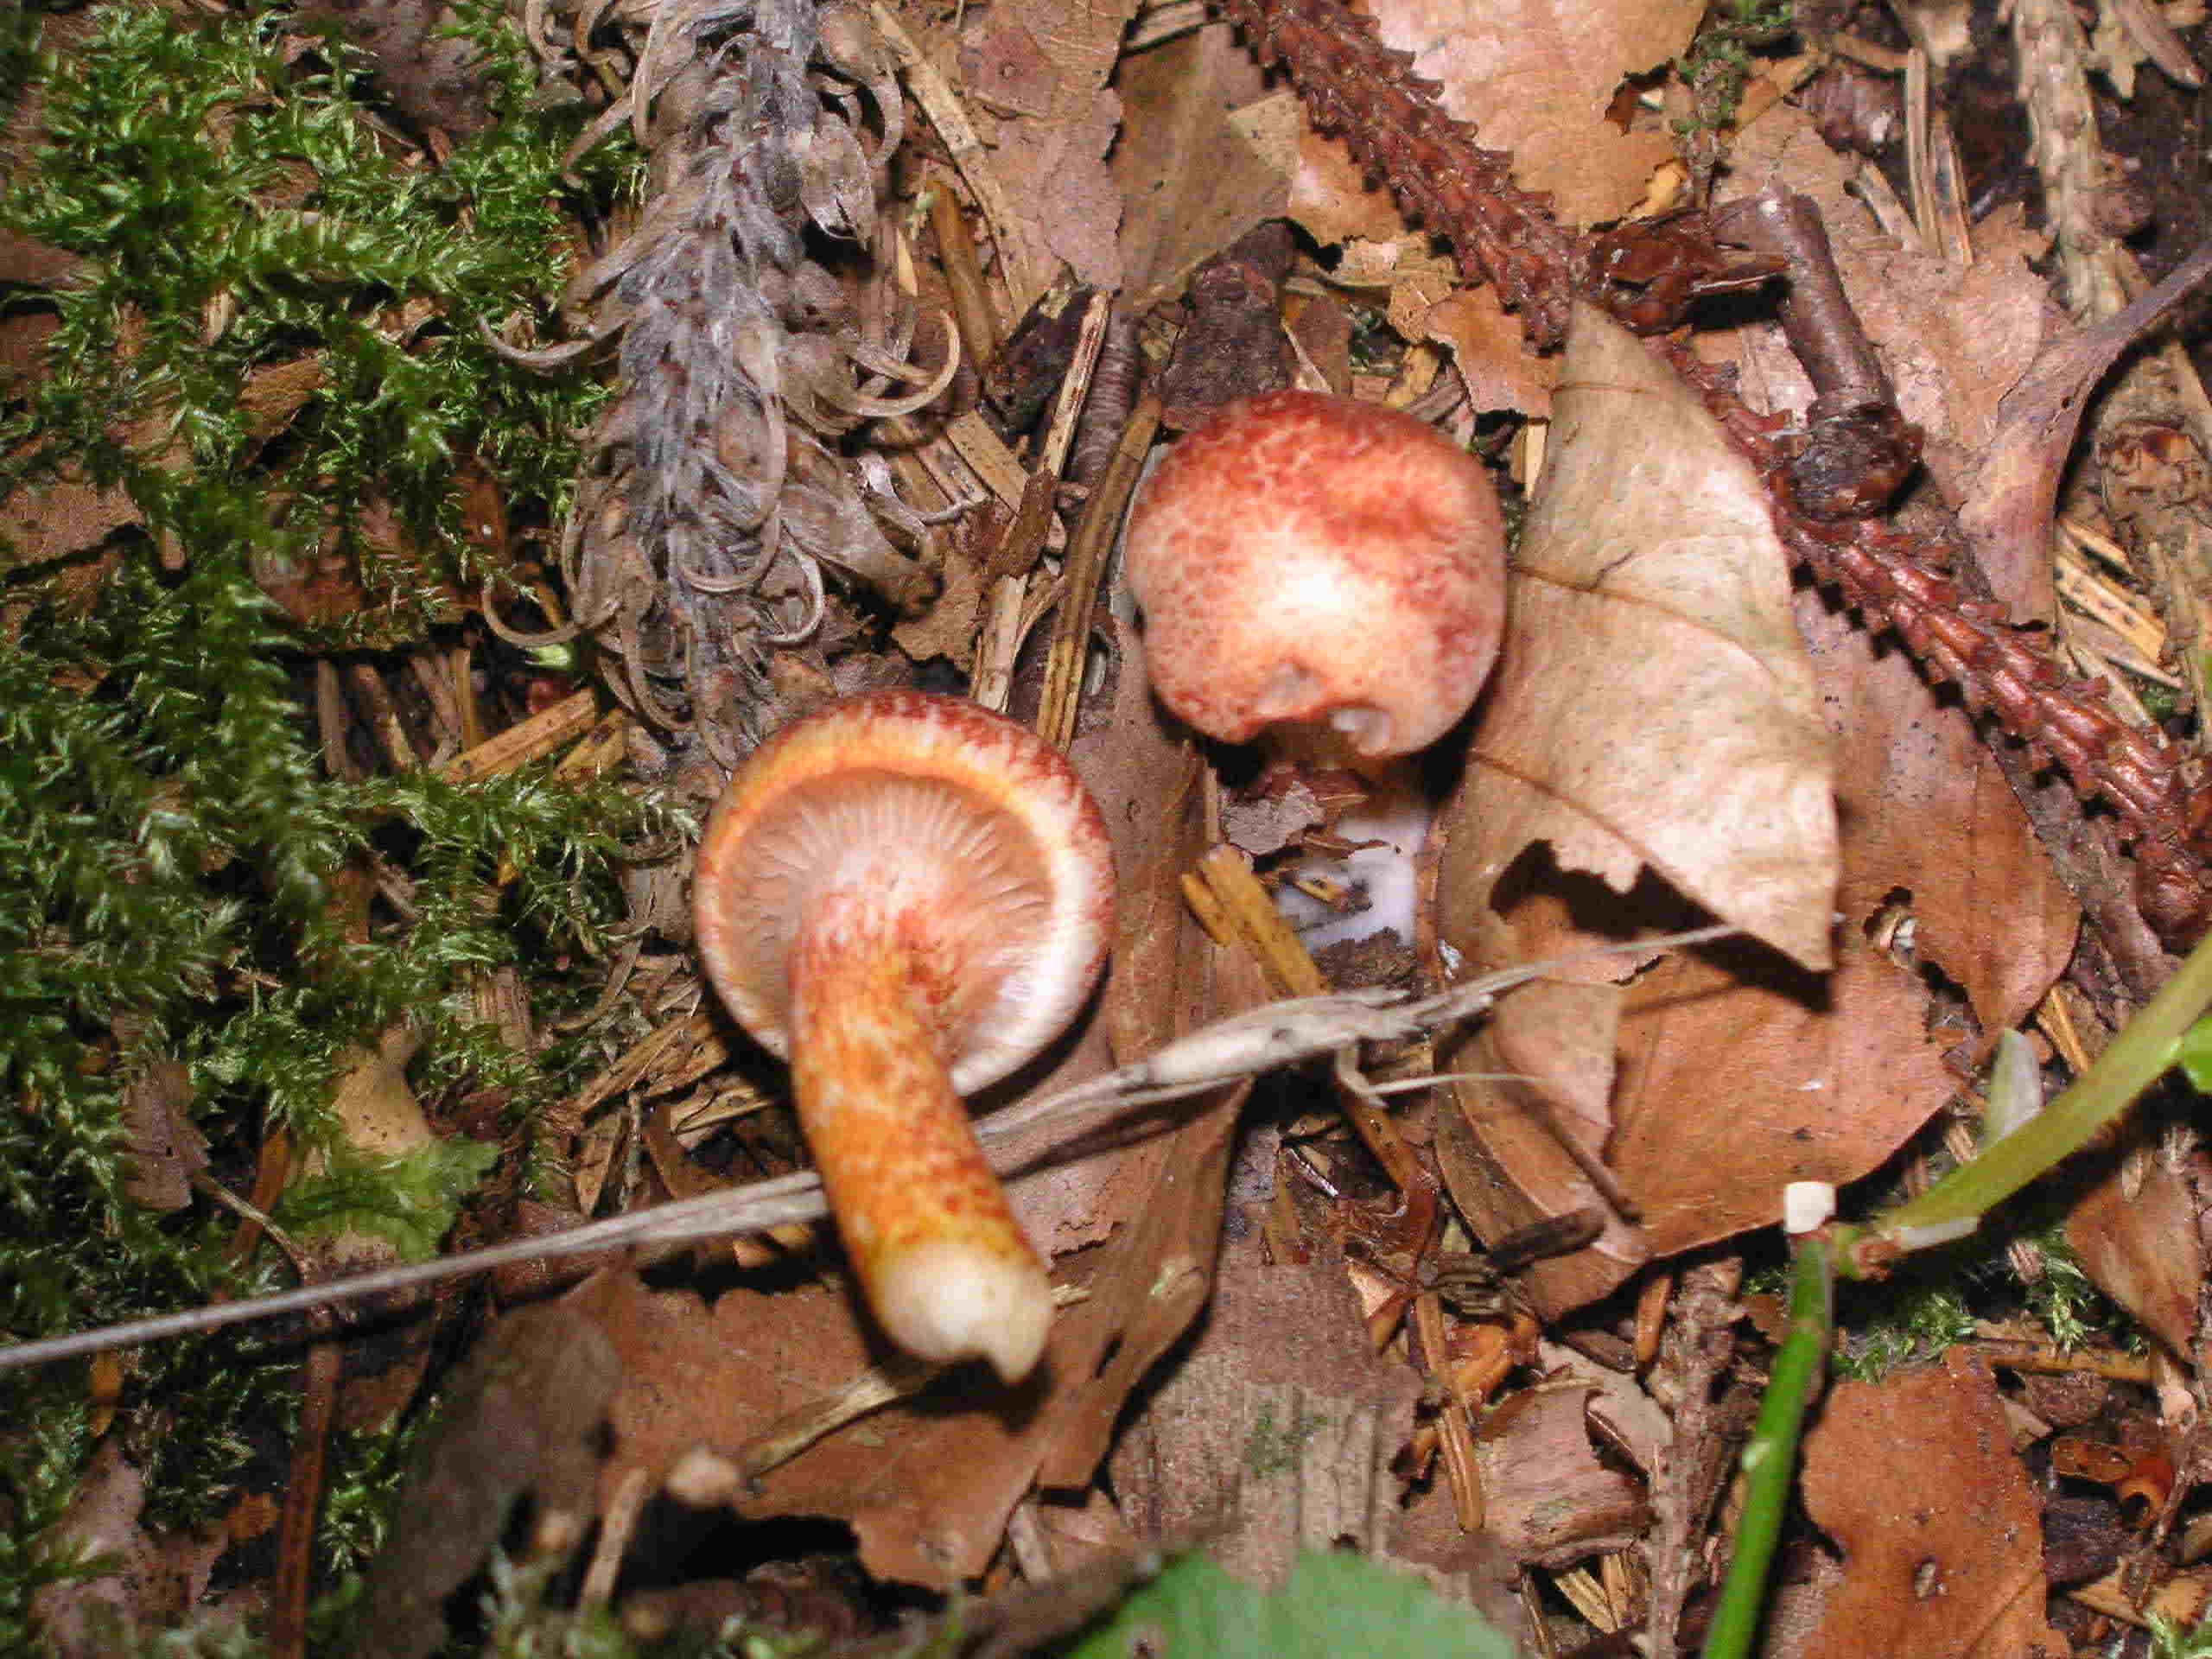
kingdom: Fungi
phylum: Basidiomycota
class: Agaricomycetes
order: Agaricales
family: Cortinariaceae
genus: Cortinarius
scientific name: Cortinarius bolaris
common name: cinnoberskællet slørhat
